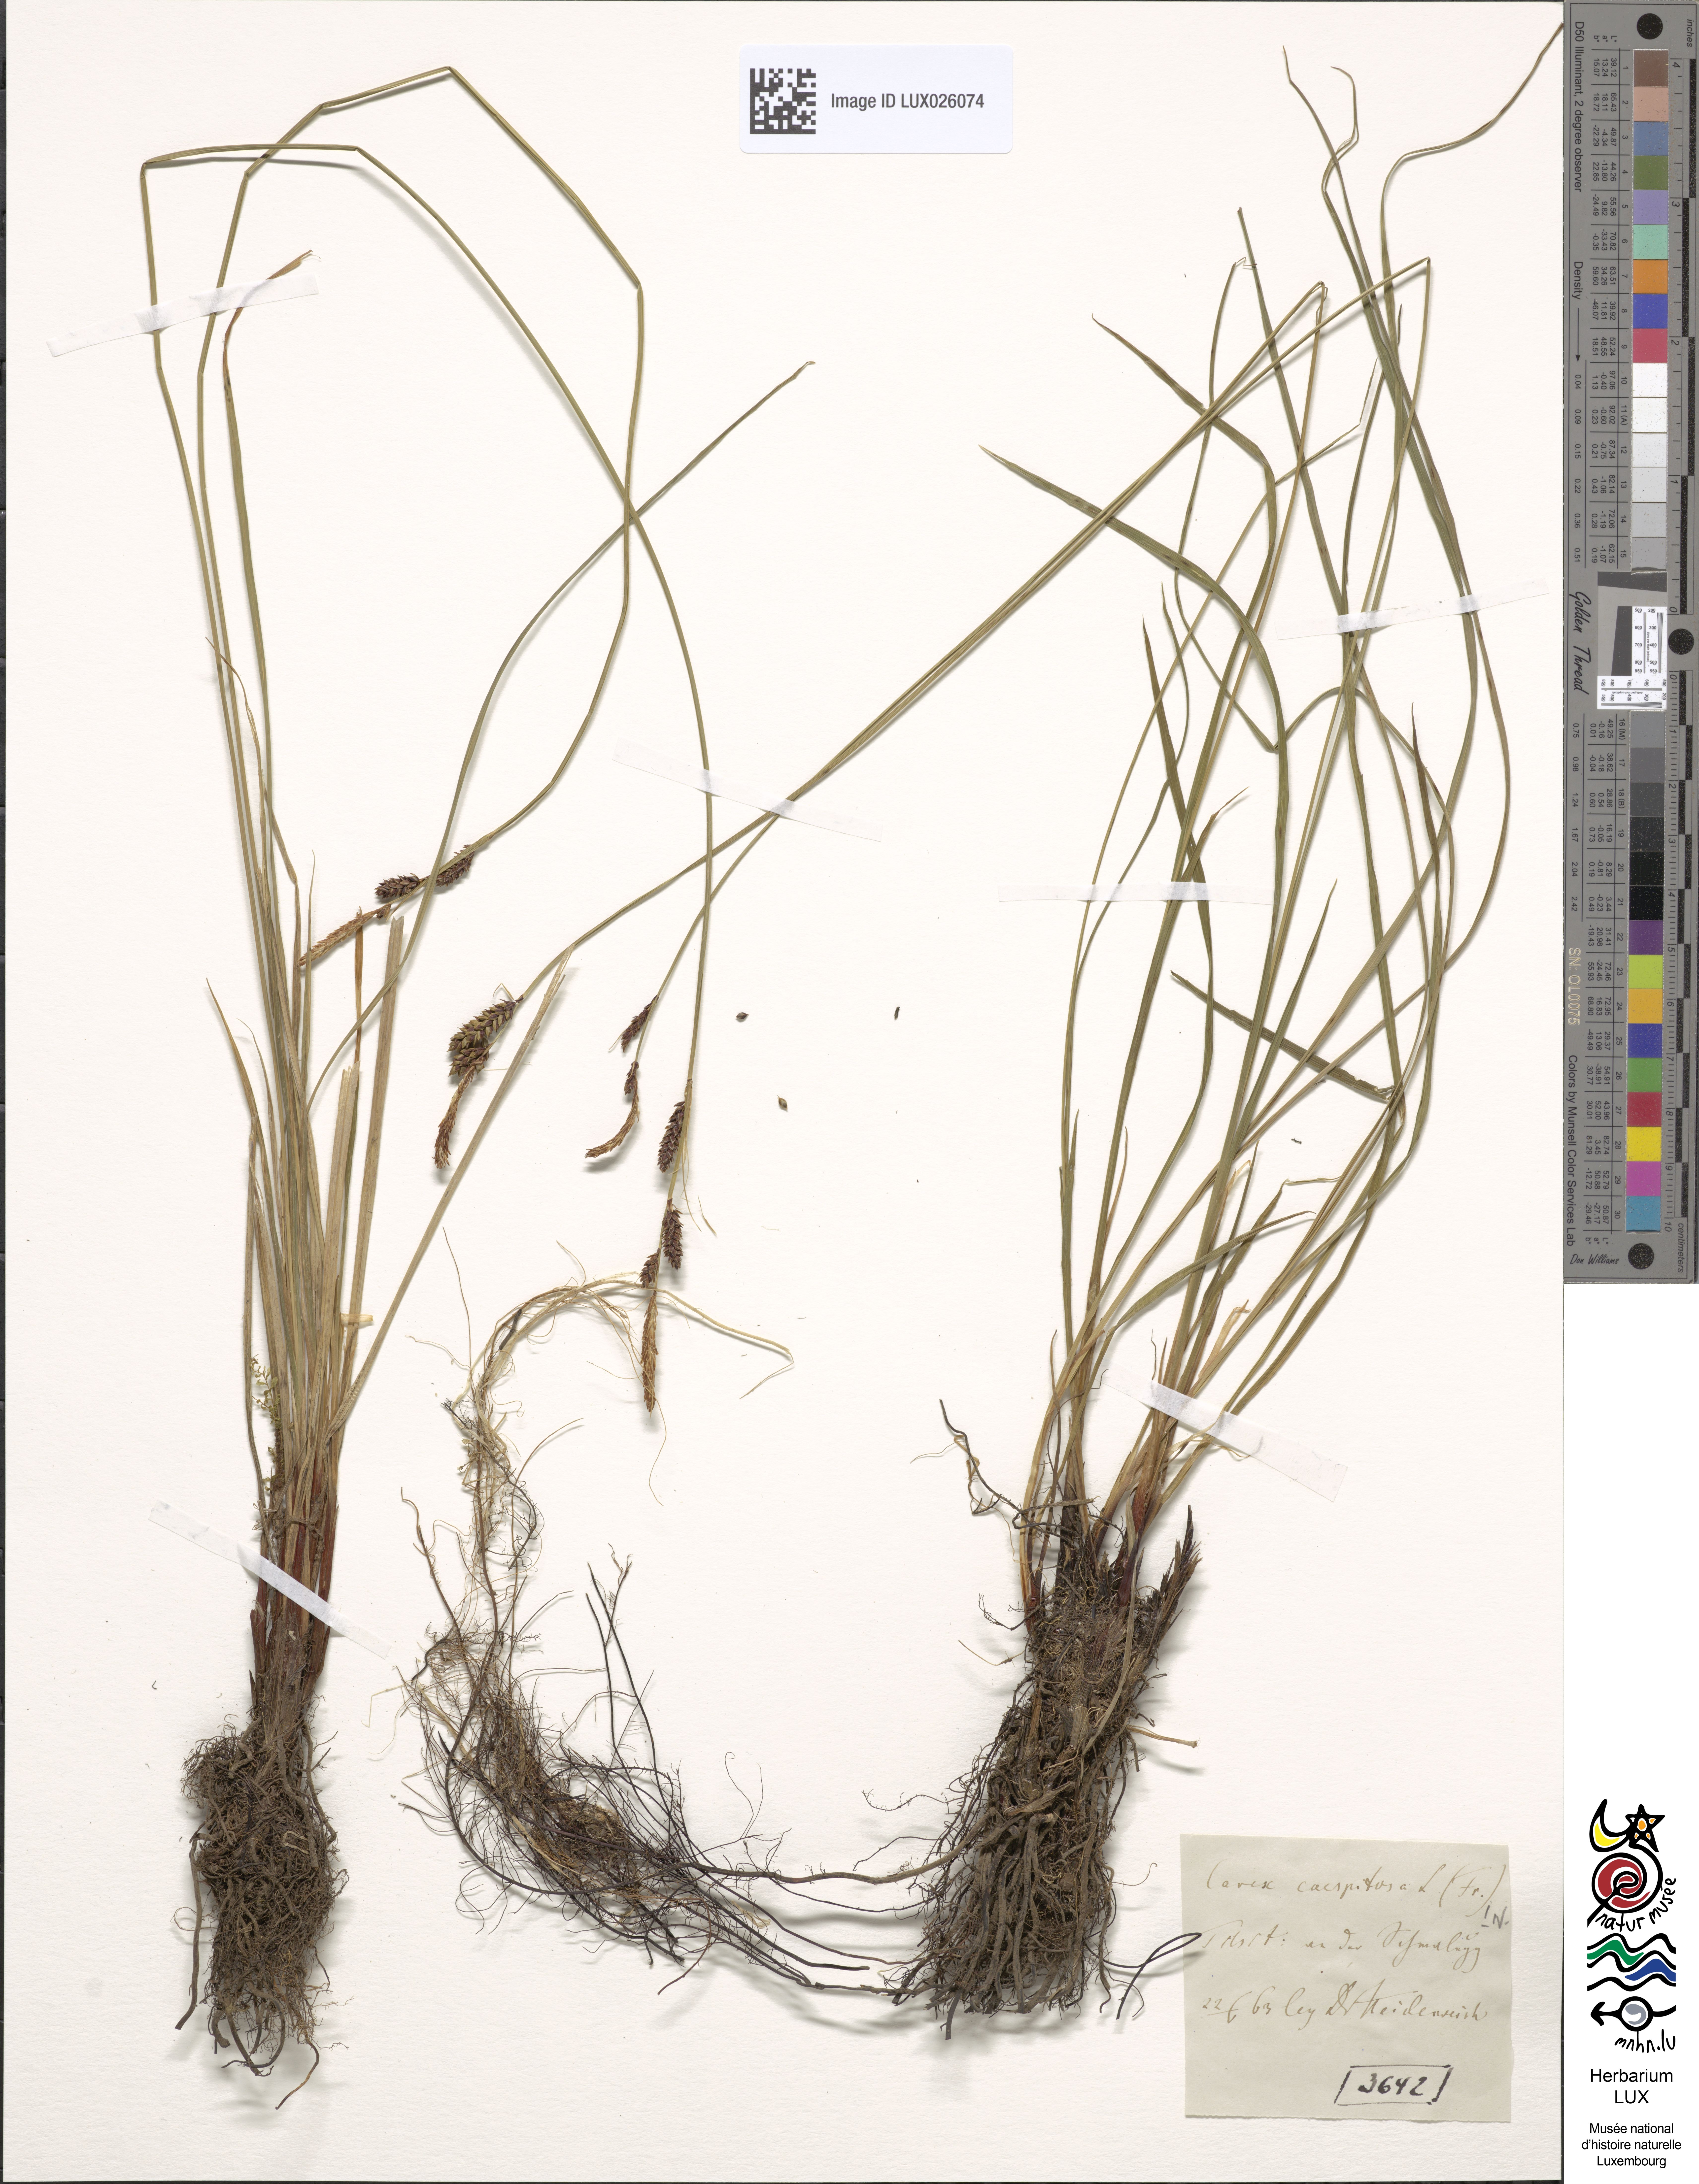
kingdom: Plantae
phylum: Tracheophyta
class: Liliopsida
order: Poales
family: Cyperaceae
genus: Carex
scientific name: Carex cespitosa
